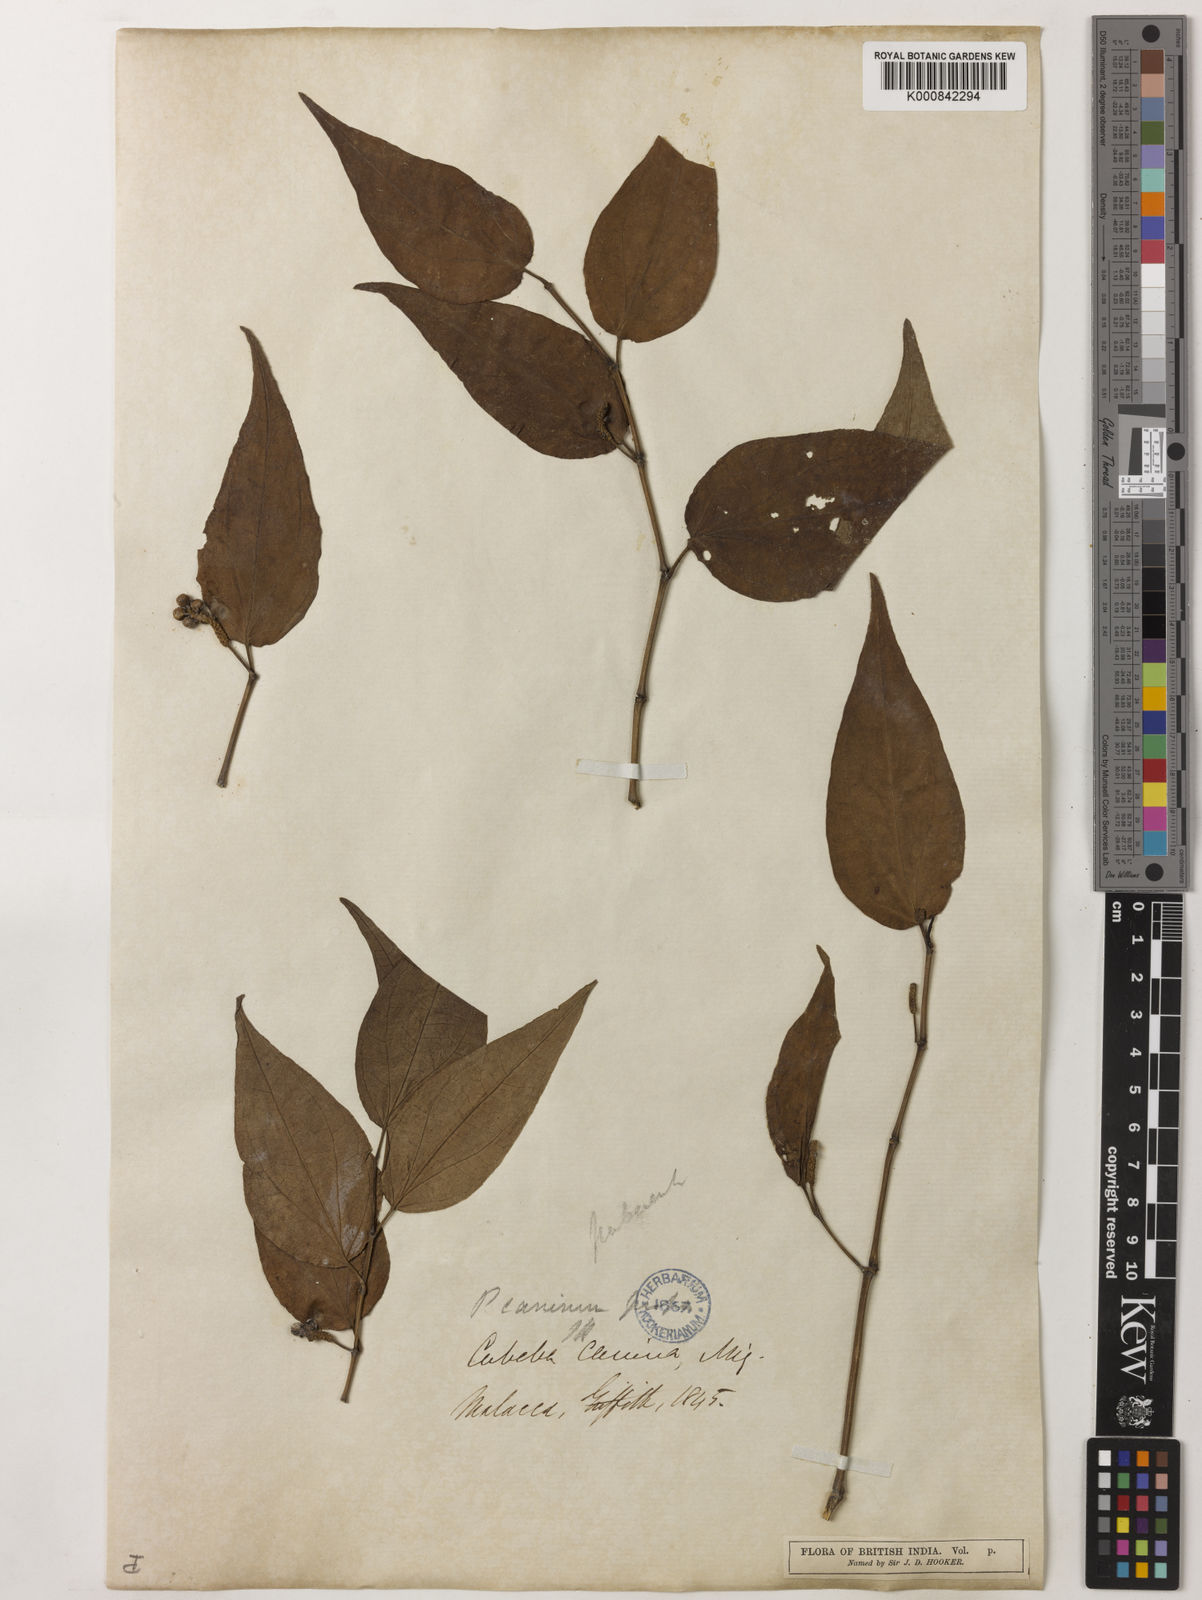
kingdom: Plantae
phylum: Tracheophyta
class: Magnoliopsida
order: Piperales
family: Piperaceae
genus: Piper
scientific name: Piper lanatum
